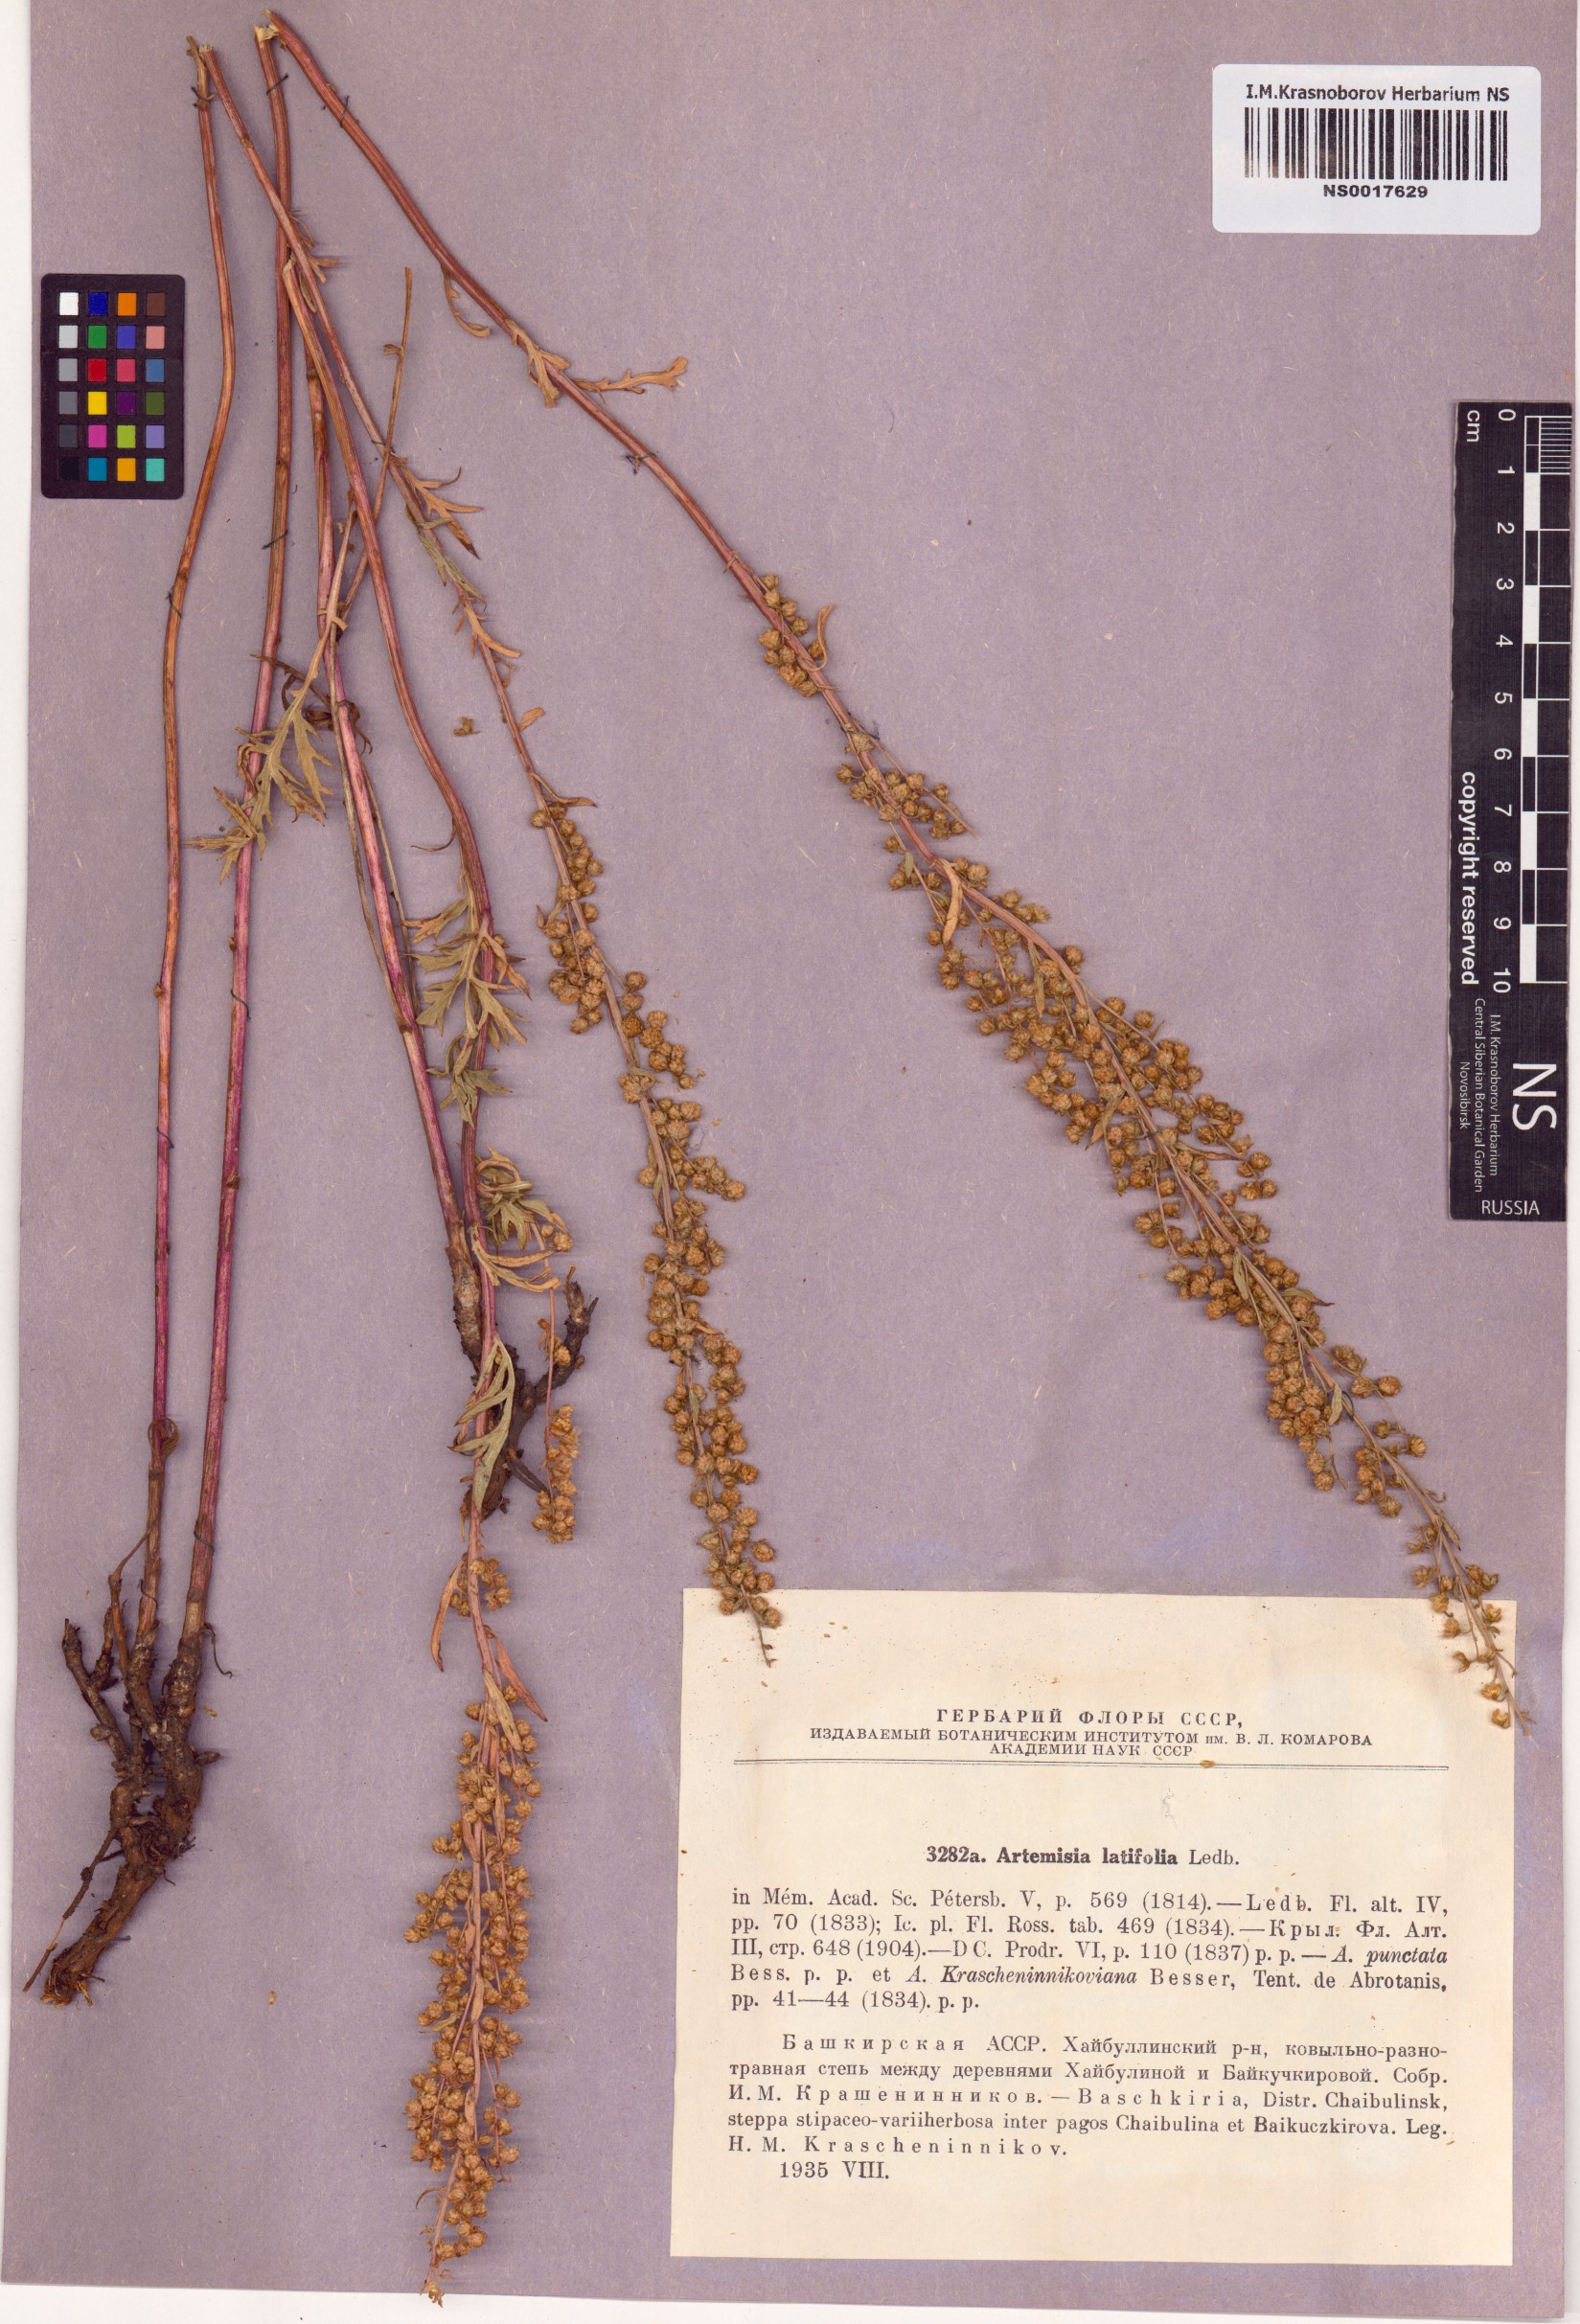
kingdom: Plantae
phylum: Tracheophyta
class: Magnoliopsida
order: Asterales
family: Asteraceae
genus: Artemisia
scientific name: Artemisia latifolia
